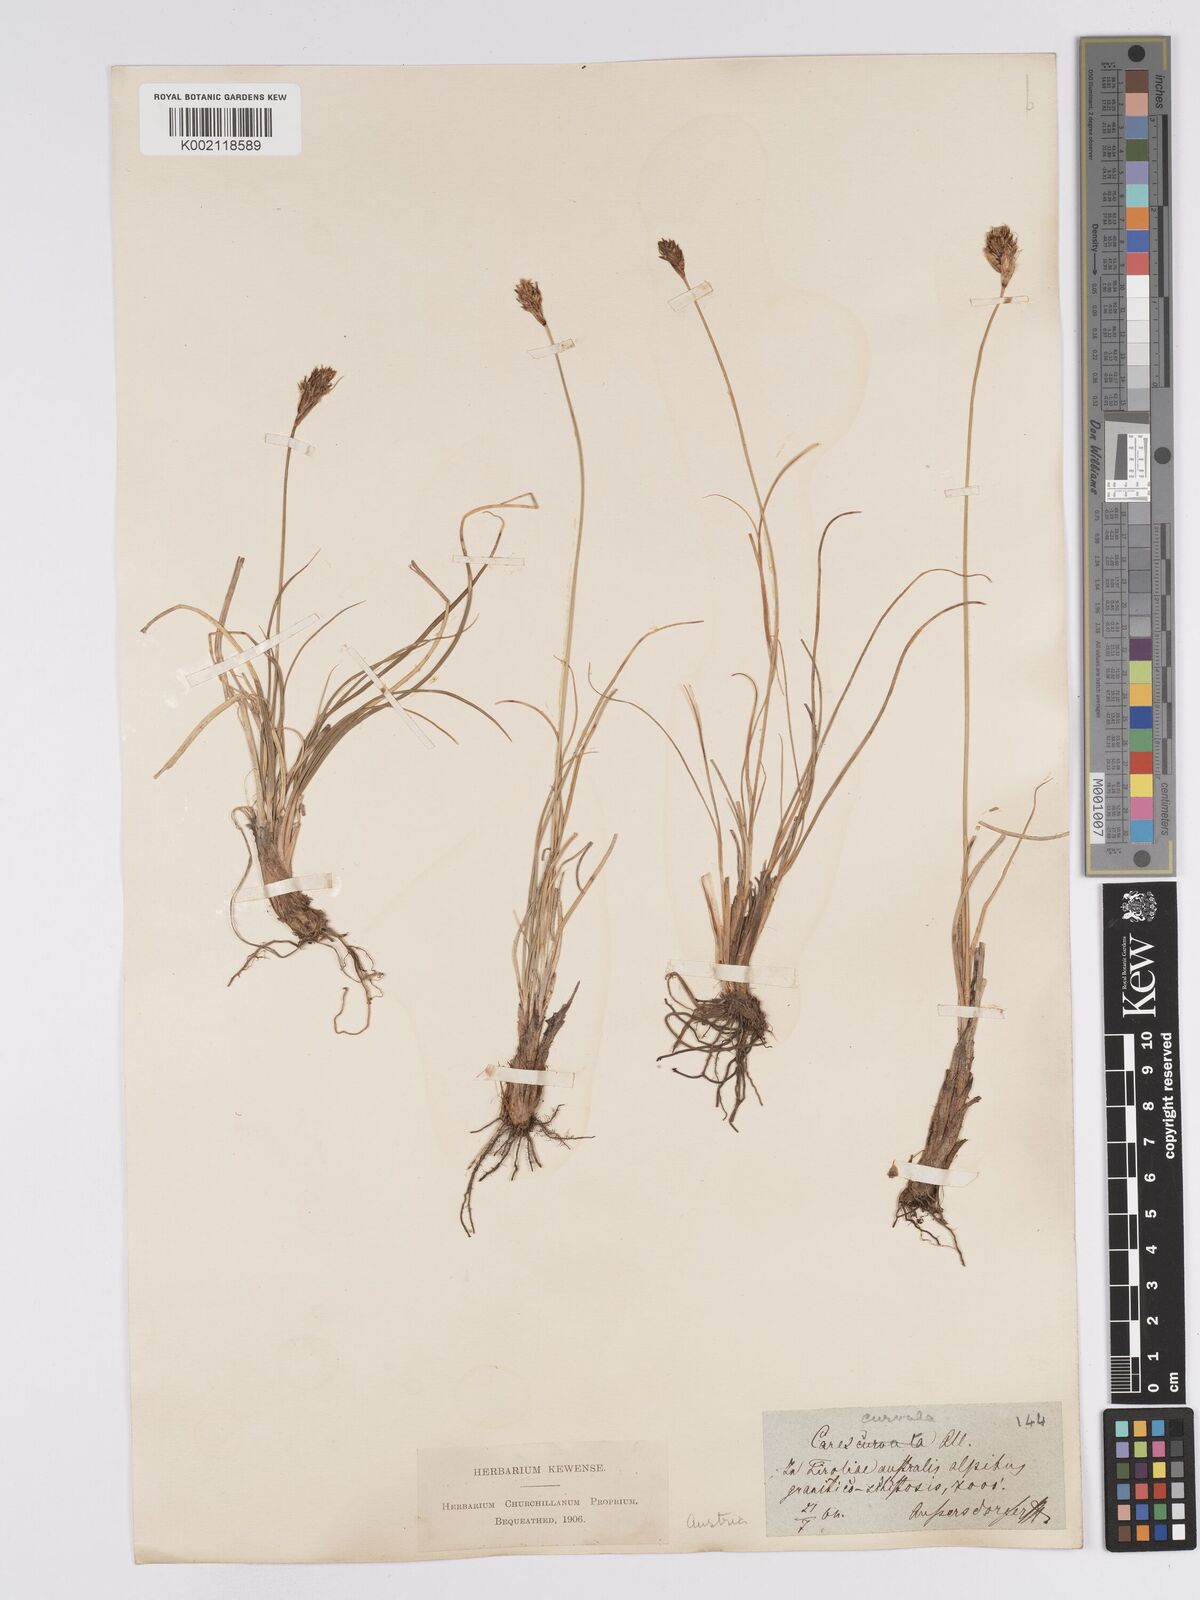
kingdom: Plantae
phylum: Tracheophyta
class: Liliopsida
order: Poales
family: Cyperaceae
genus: Carex
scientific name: Carex curvula
